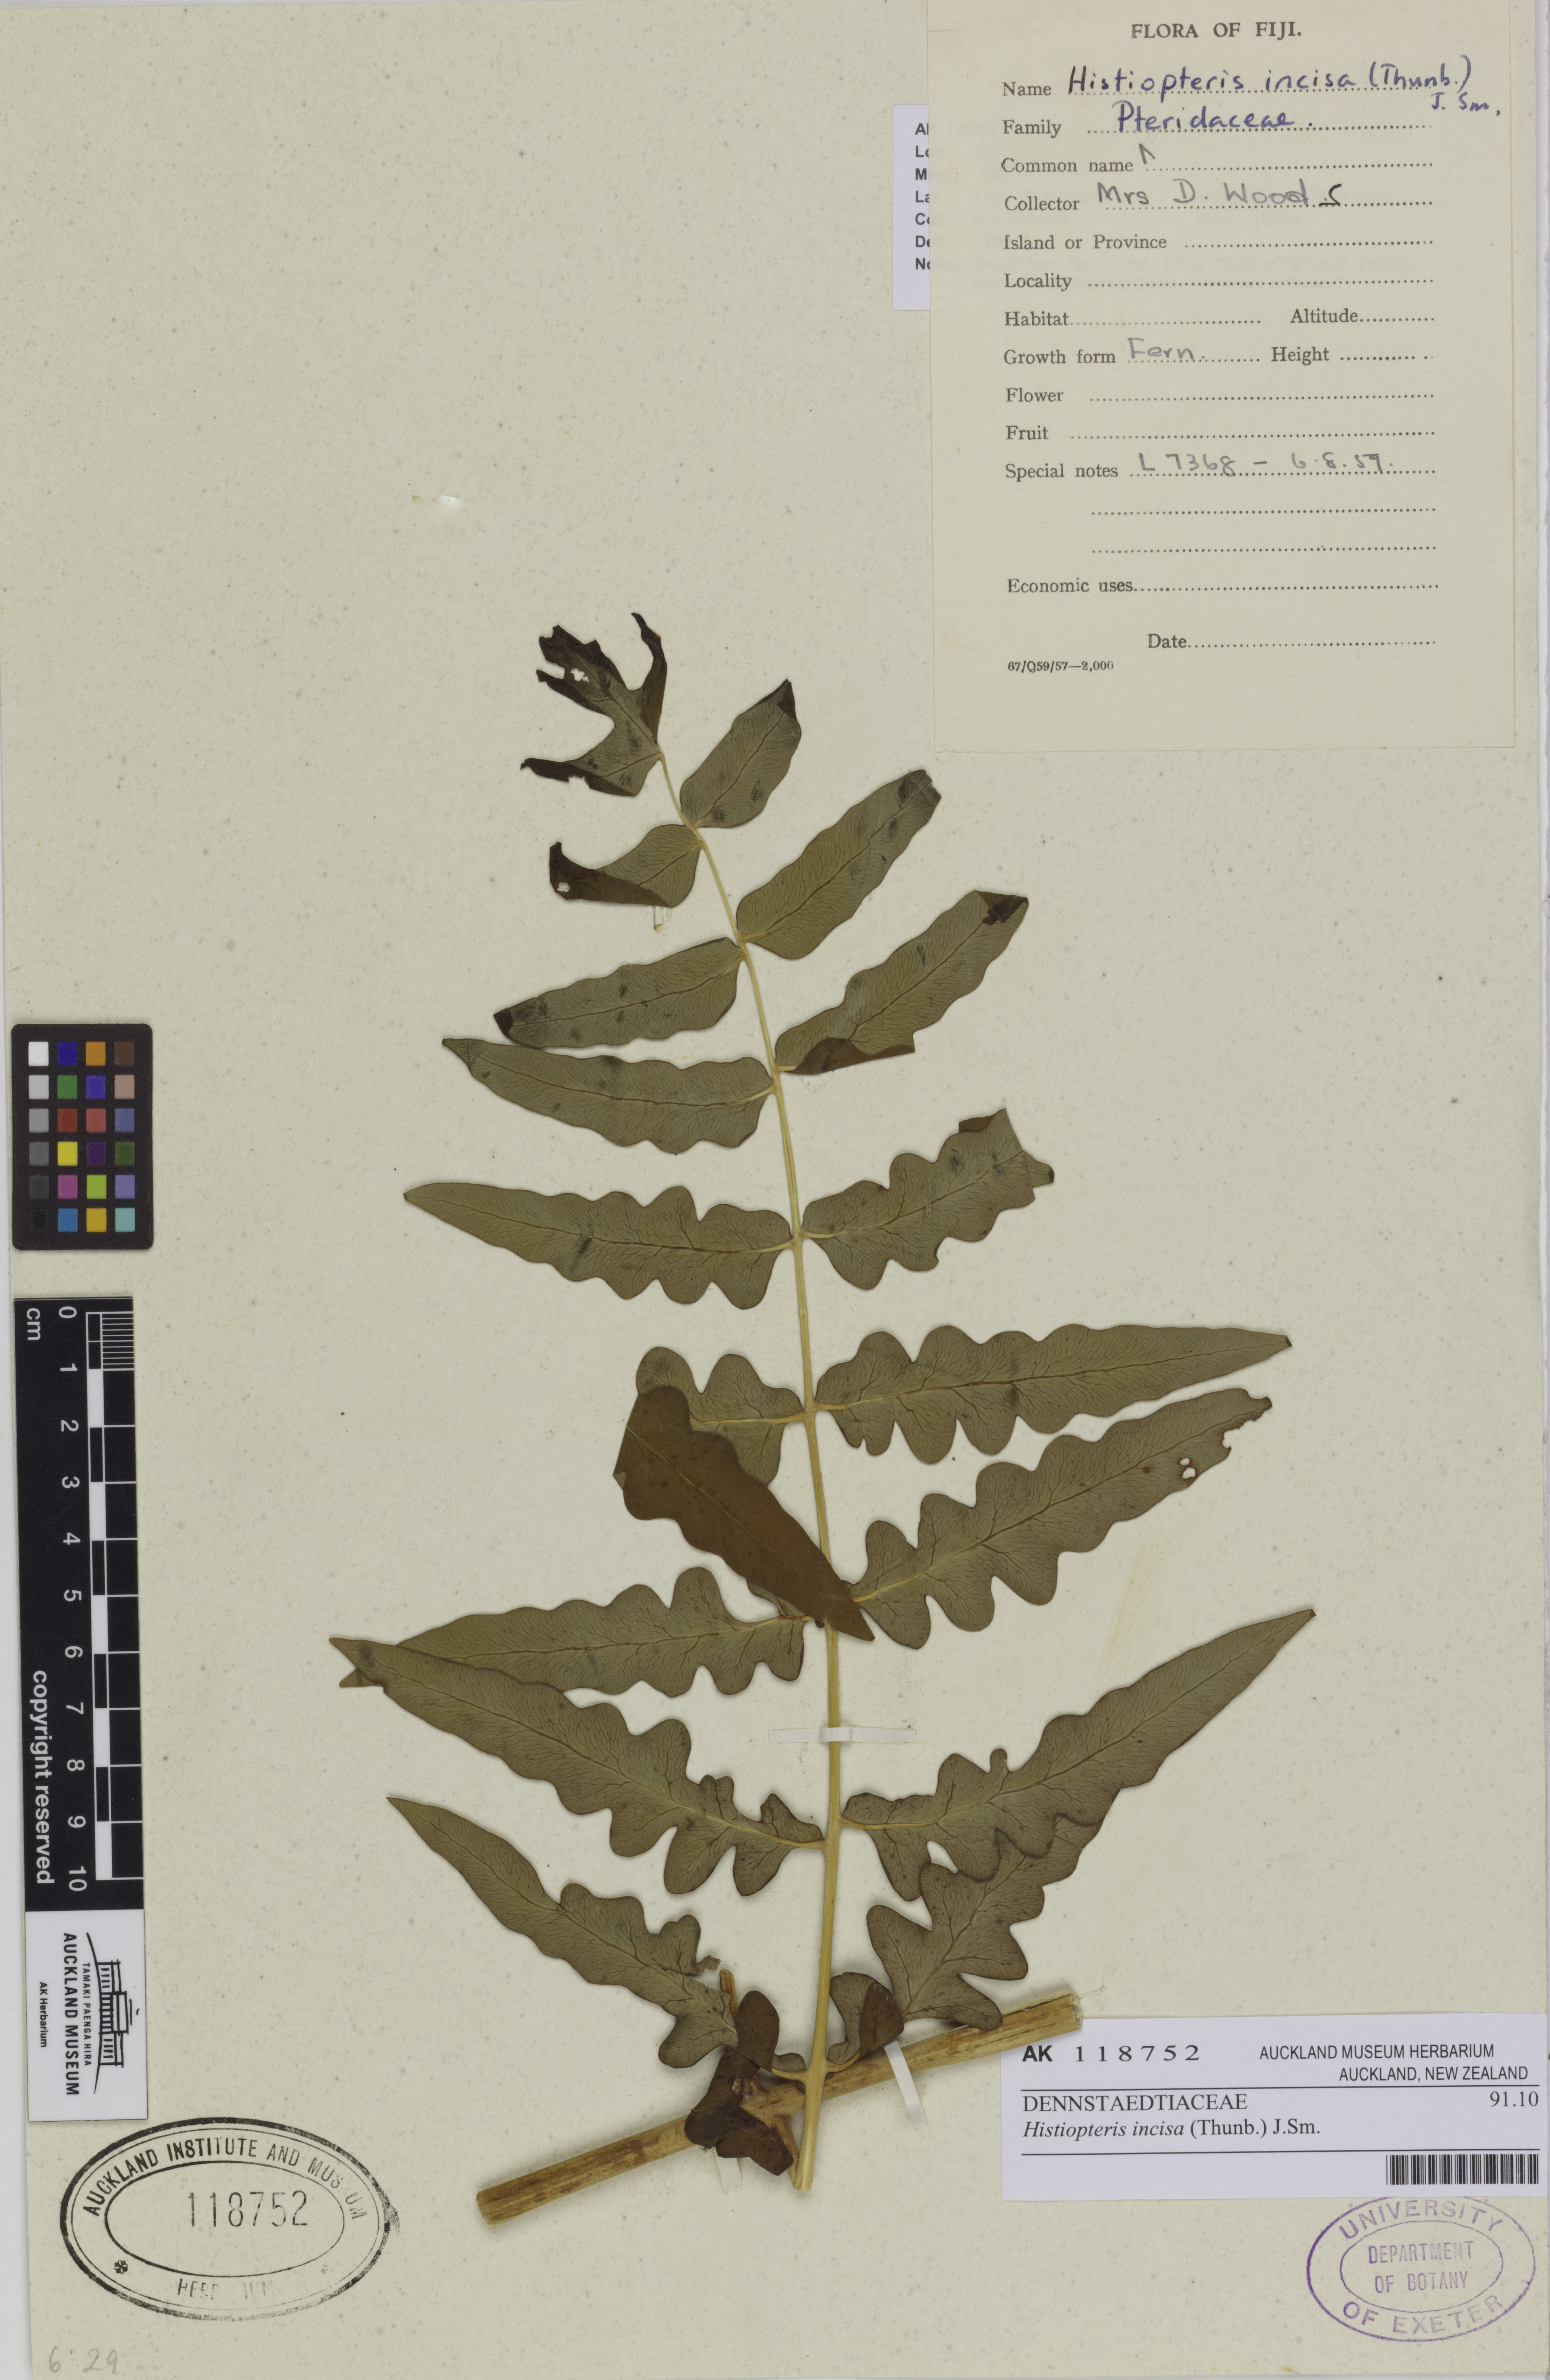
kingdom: Plantae
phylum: Tracheophyta
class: Polypodiopsida
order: Polypodiales
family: Dennstaedtiaceae
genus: Histiopteris
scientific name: Histiopteris incisa
